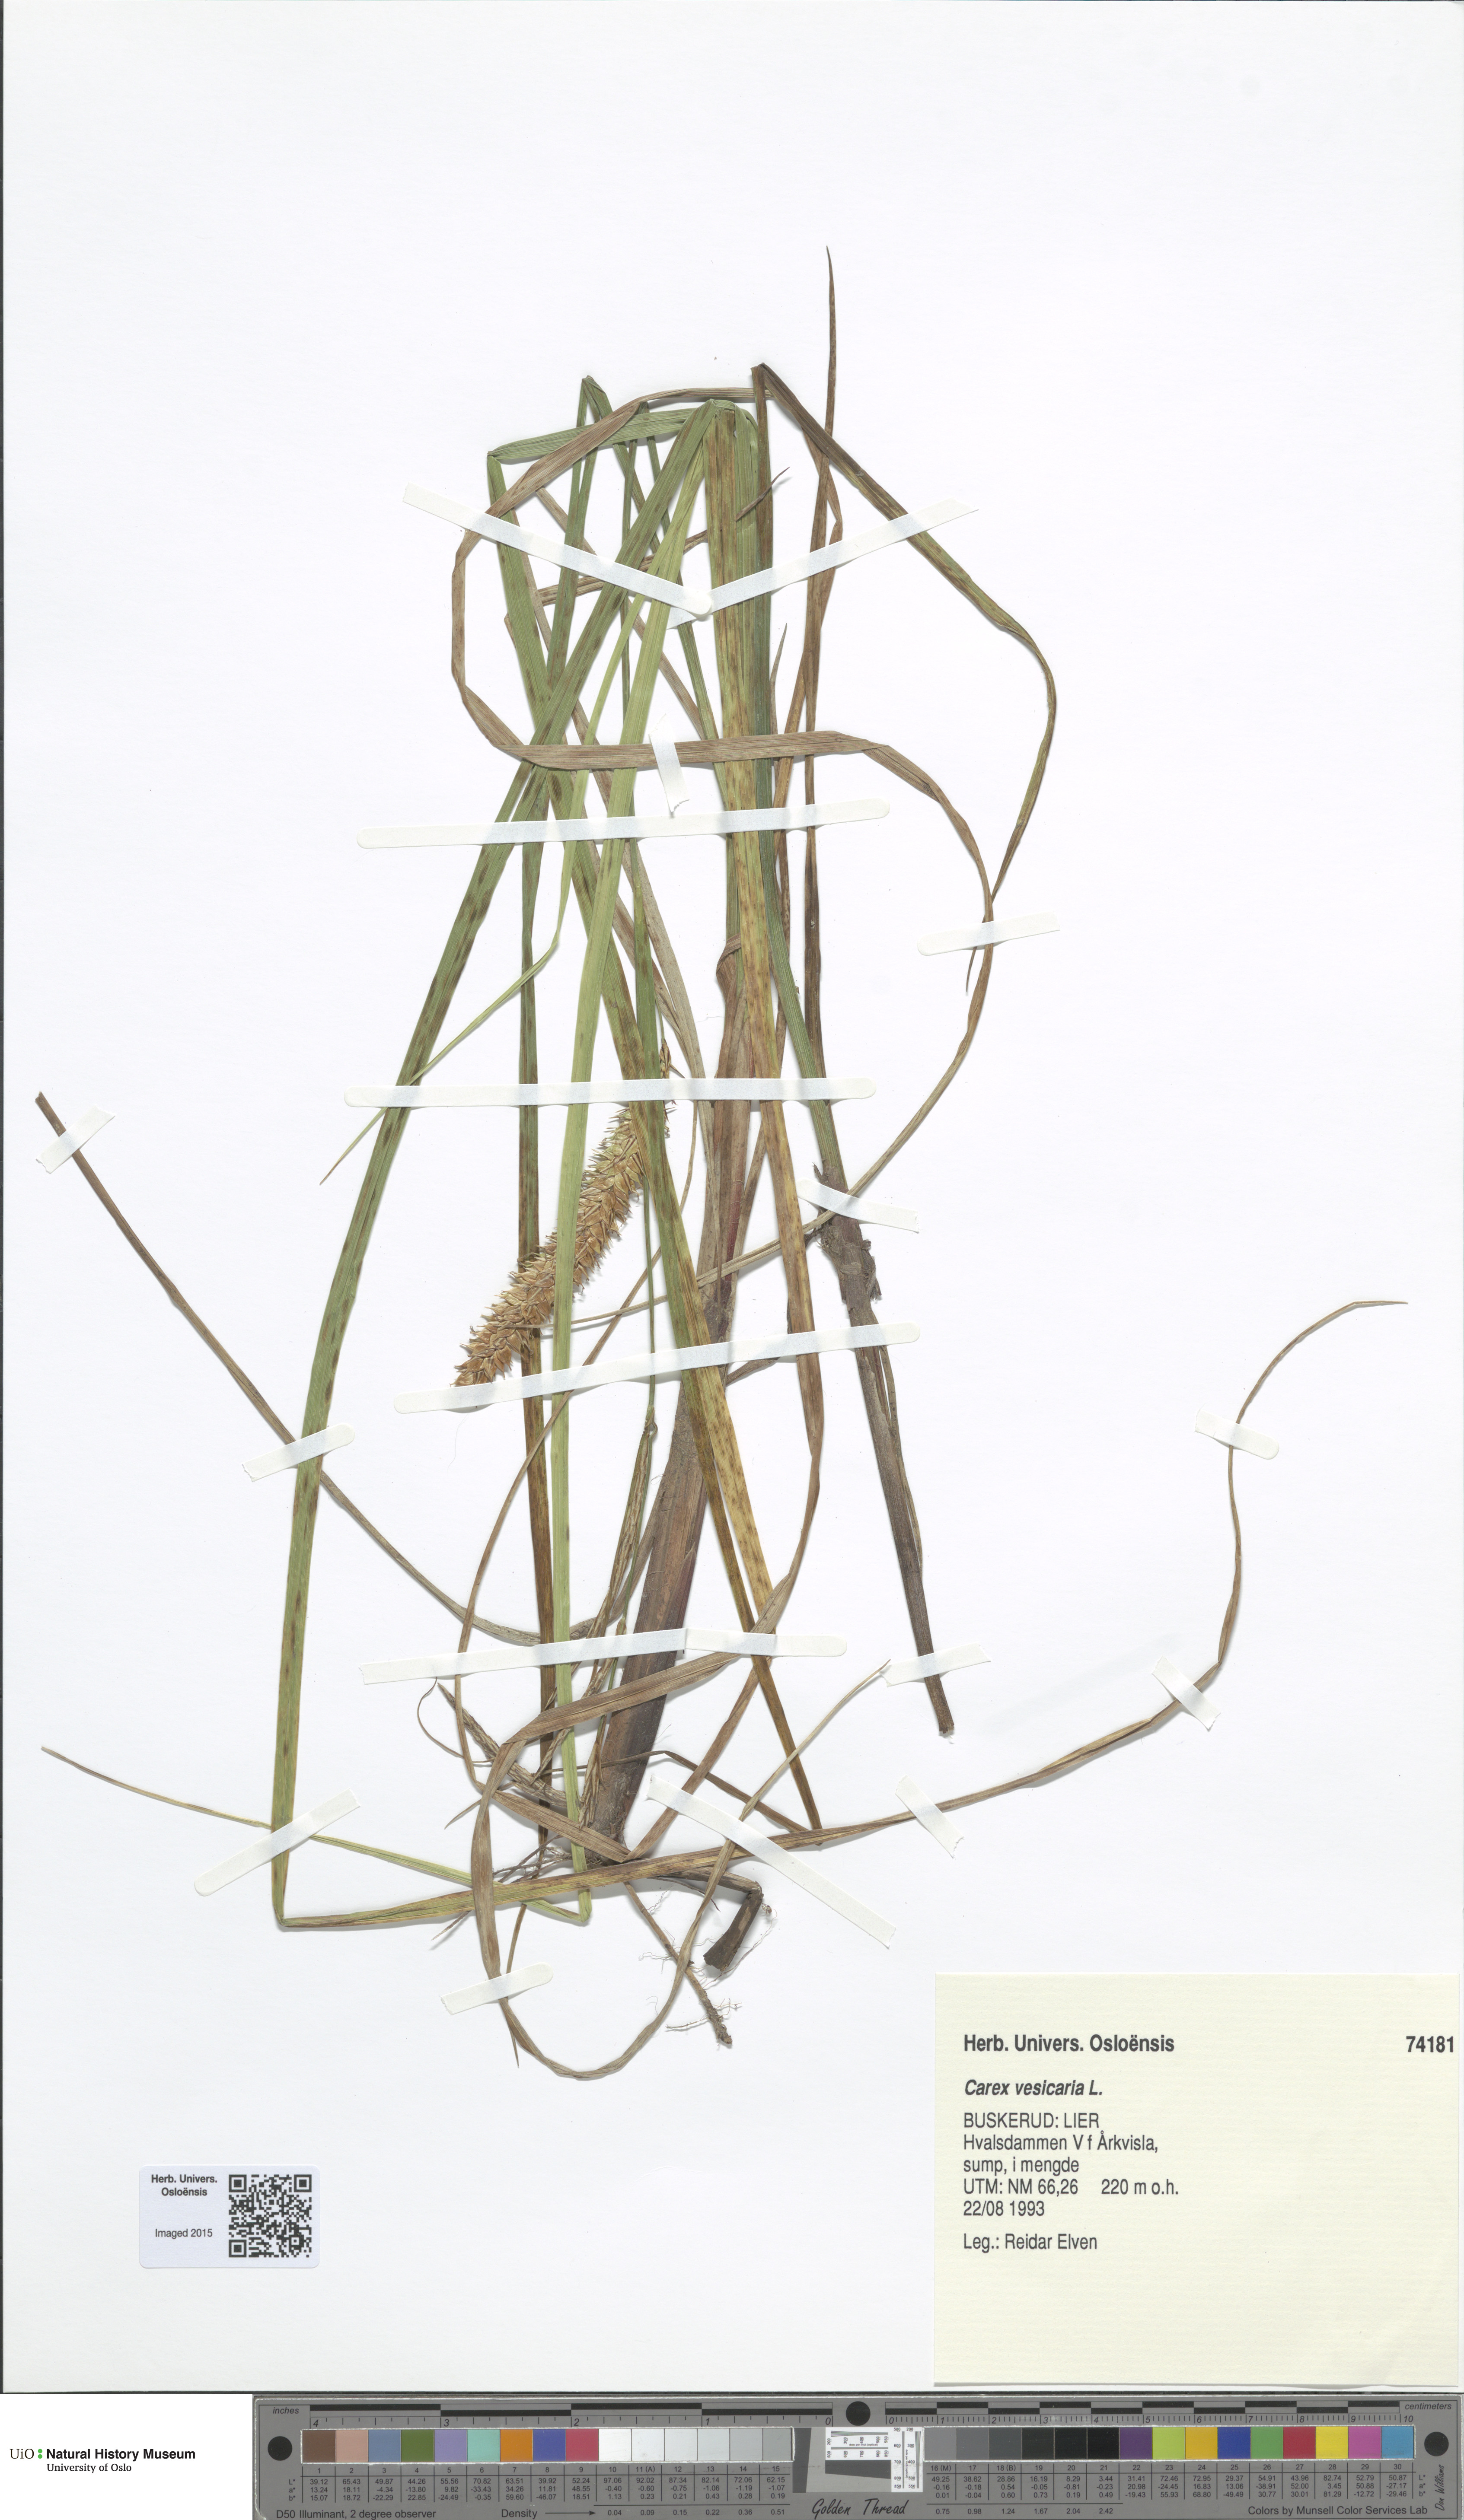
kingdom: Plantae
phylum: Tracheophyta
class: Liliopsida
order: Poales
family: Cyperaceae
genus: Carex
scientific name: Carex vesicaria
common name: Bladder-sedge
